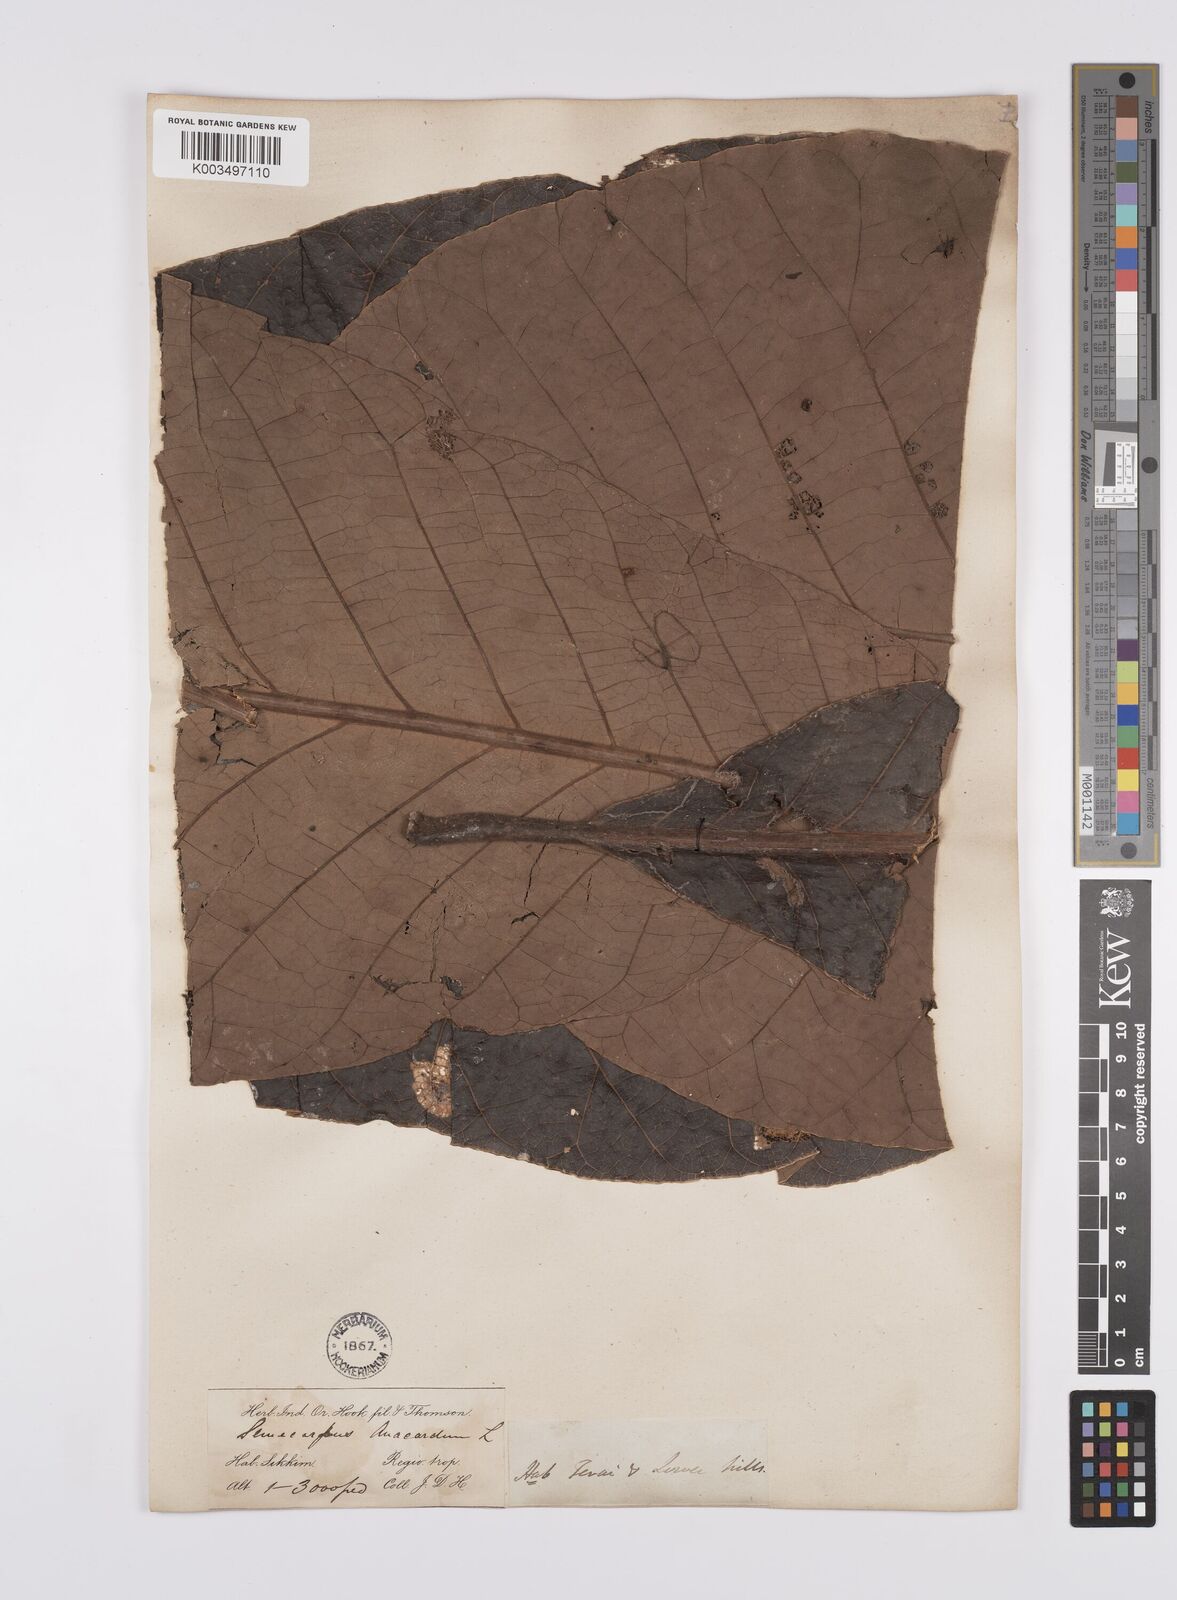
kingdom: Plantae
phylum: Tracheophyta
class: Magnoliopsida
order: Sapindales
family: Anacardiaceae
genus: Semecarpus
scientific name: Semecarpus anacardium
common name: Marking nut-tree
